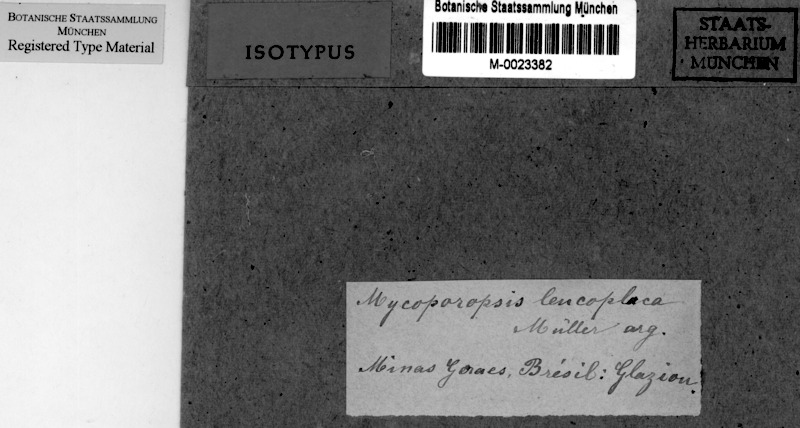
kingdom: Fungi
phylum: Ascomycota
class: Dothideomycetes
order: Pleosporales
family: Mycoporaceae
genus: Mycoporellum
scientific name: Mycoporellum leucoplacum
